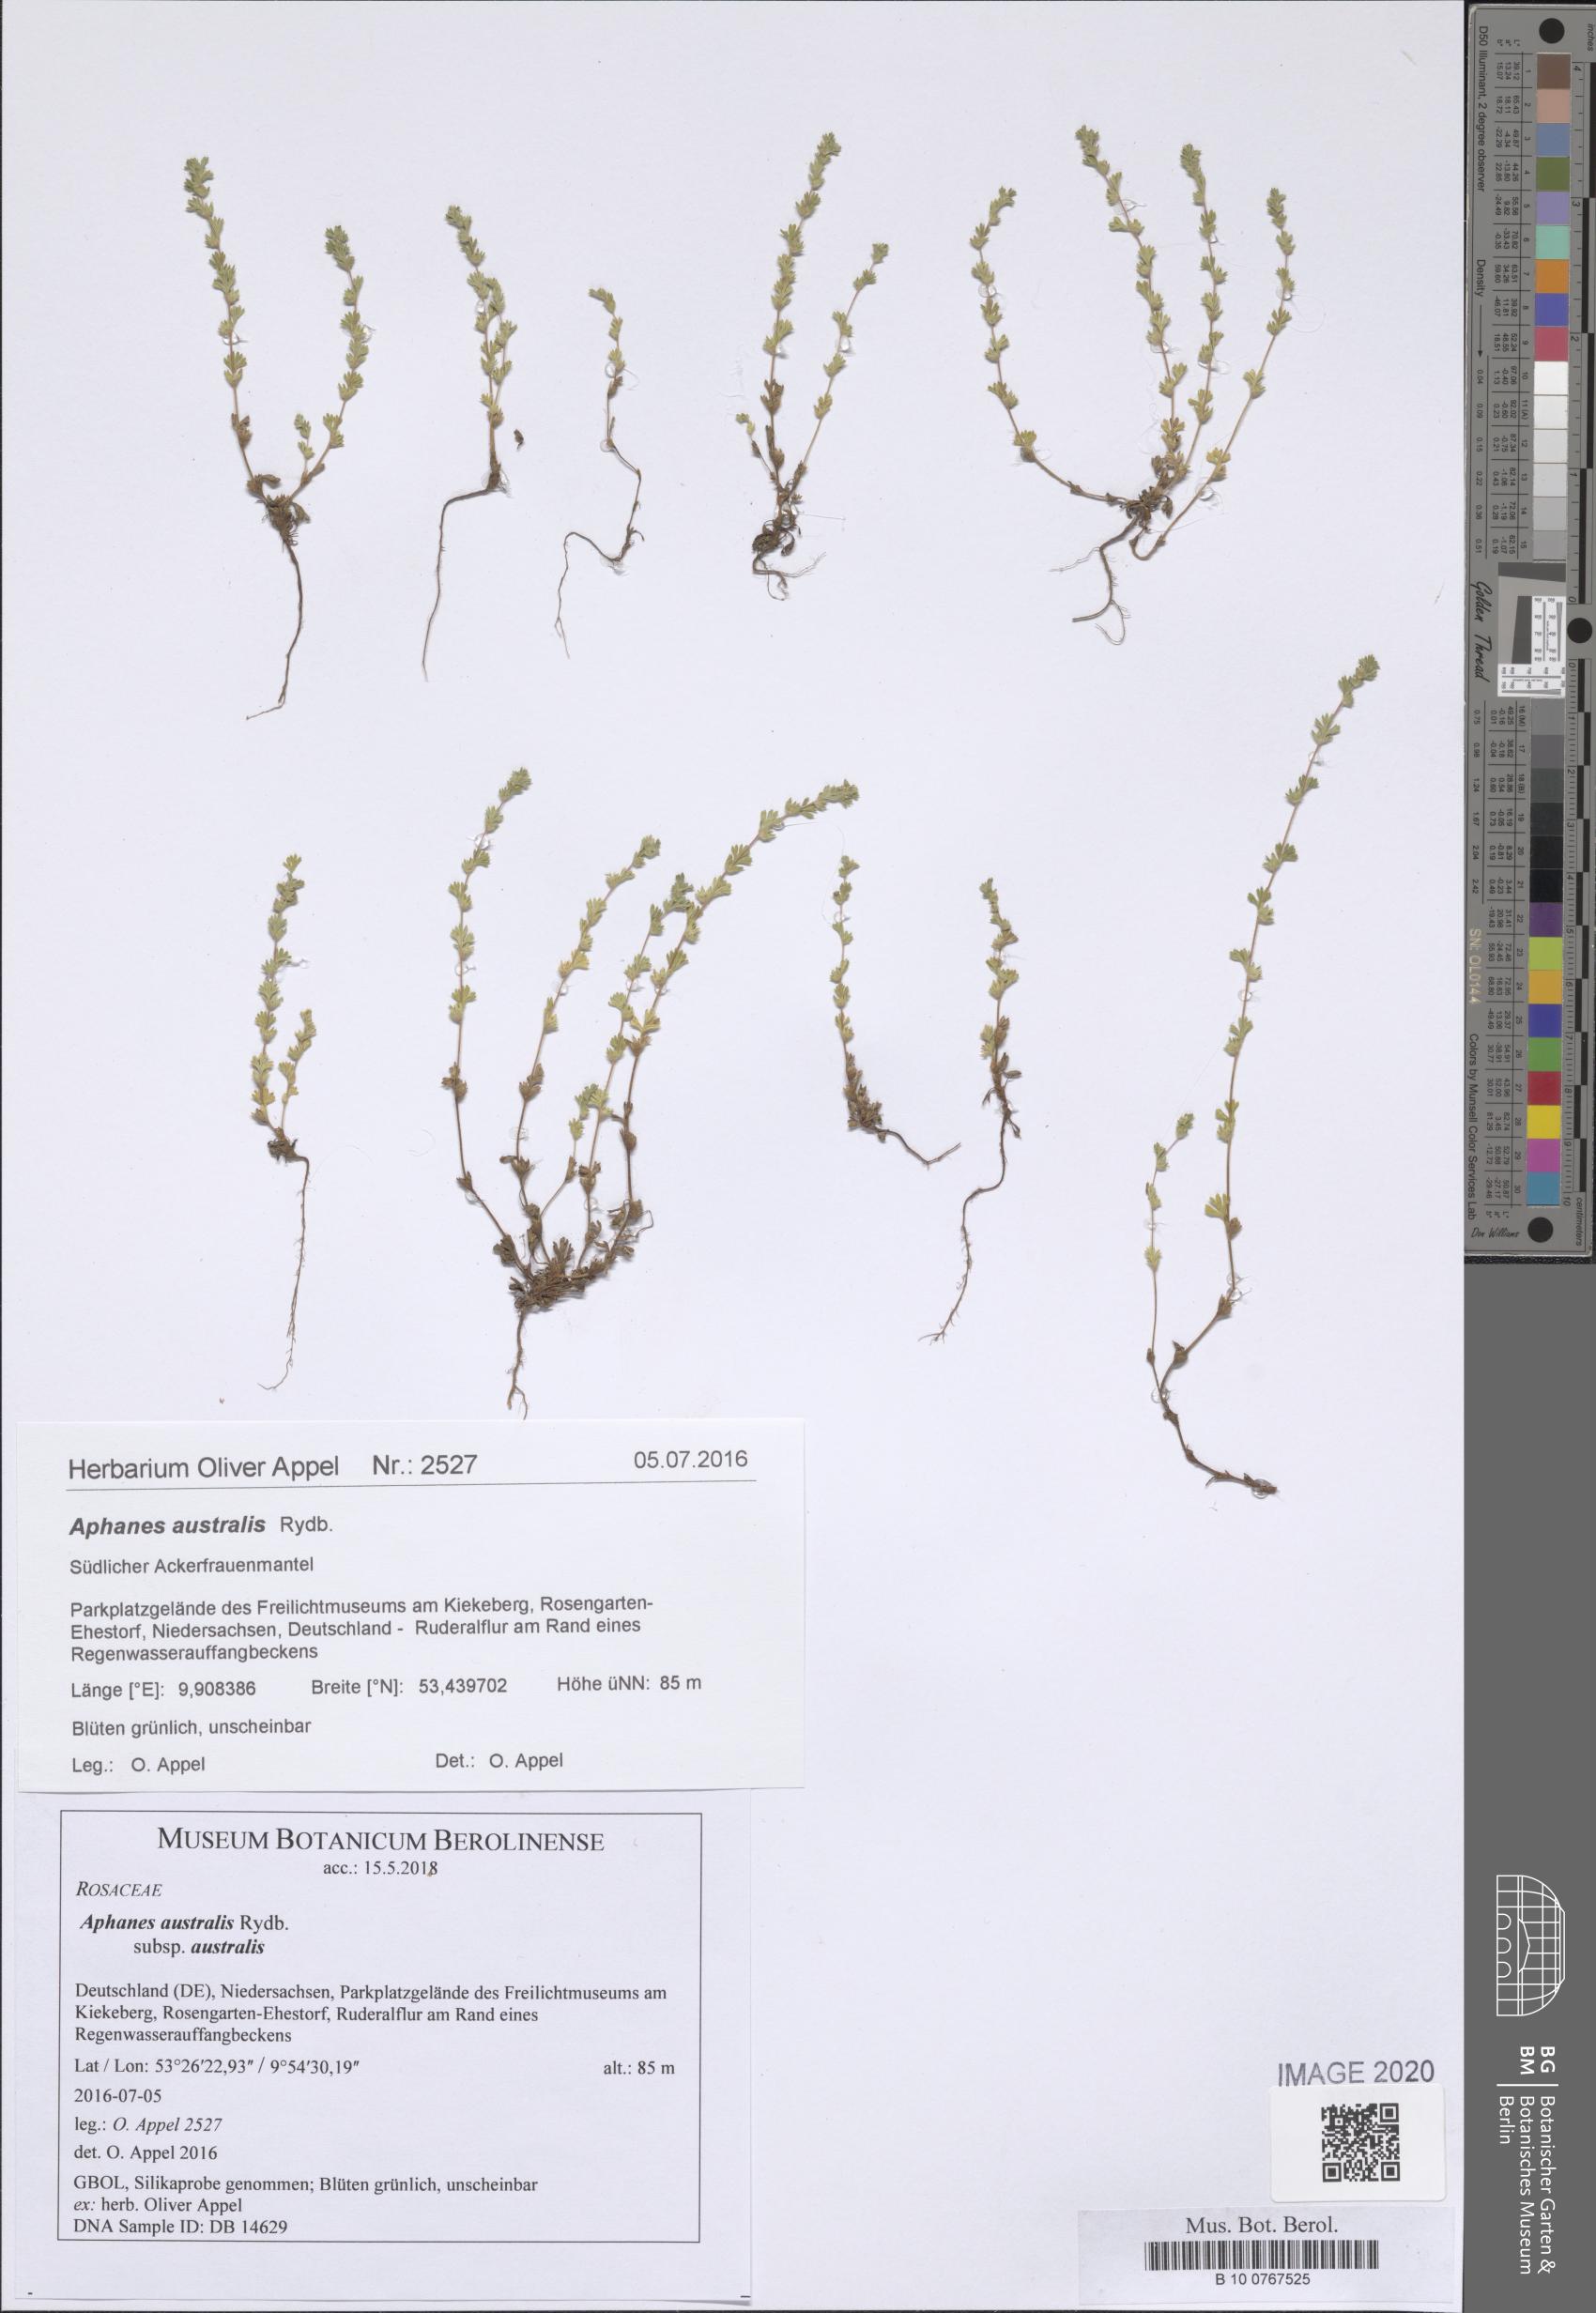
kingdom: Plantae
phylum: Tracheophyta
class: Magnoliopsida
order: Rosales
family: Rosaceae
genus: Aphanes
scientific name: Aphanes australis
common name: Slender parsley-piert
